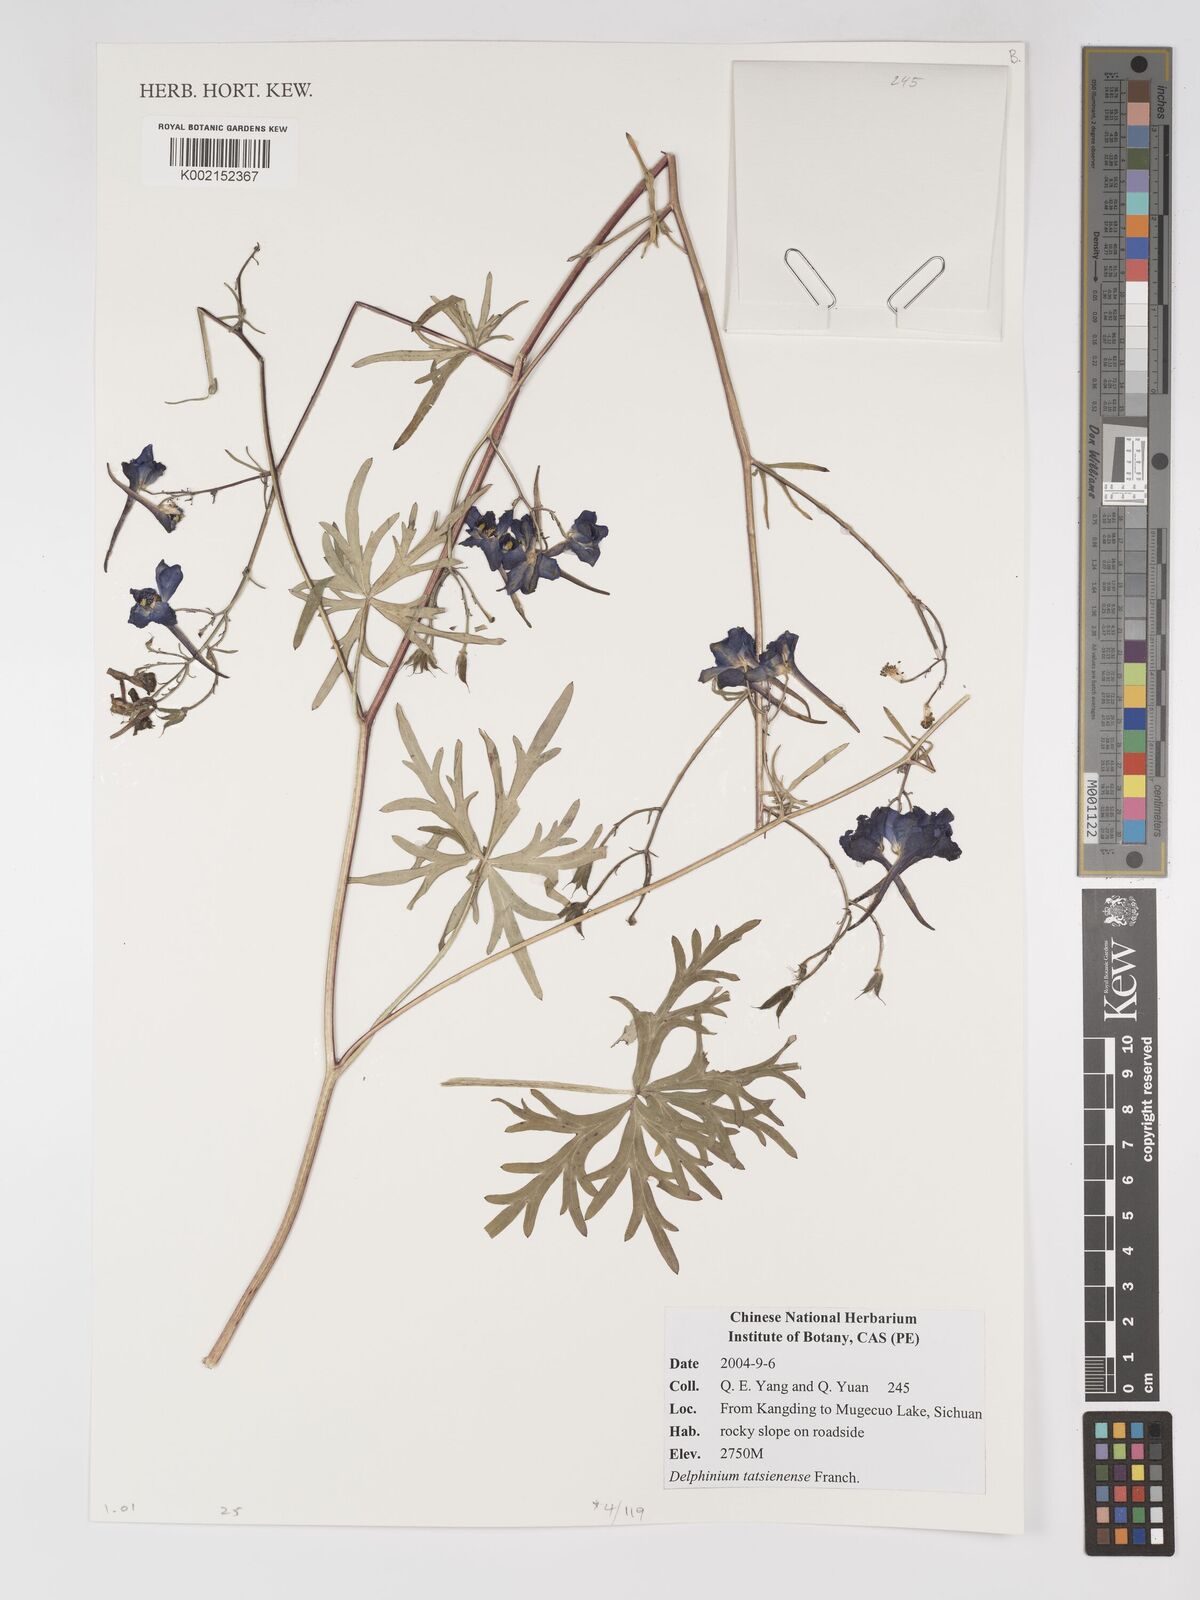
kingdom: Plantae
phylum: Tracheophyta
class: Magnoliopsida
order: Ranunculales
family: Ranunculaceae
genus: Delphinium
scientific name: Delphinium tatsienense
